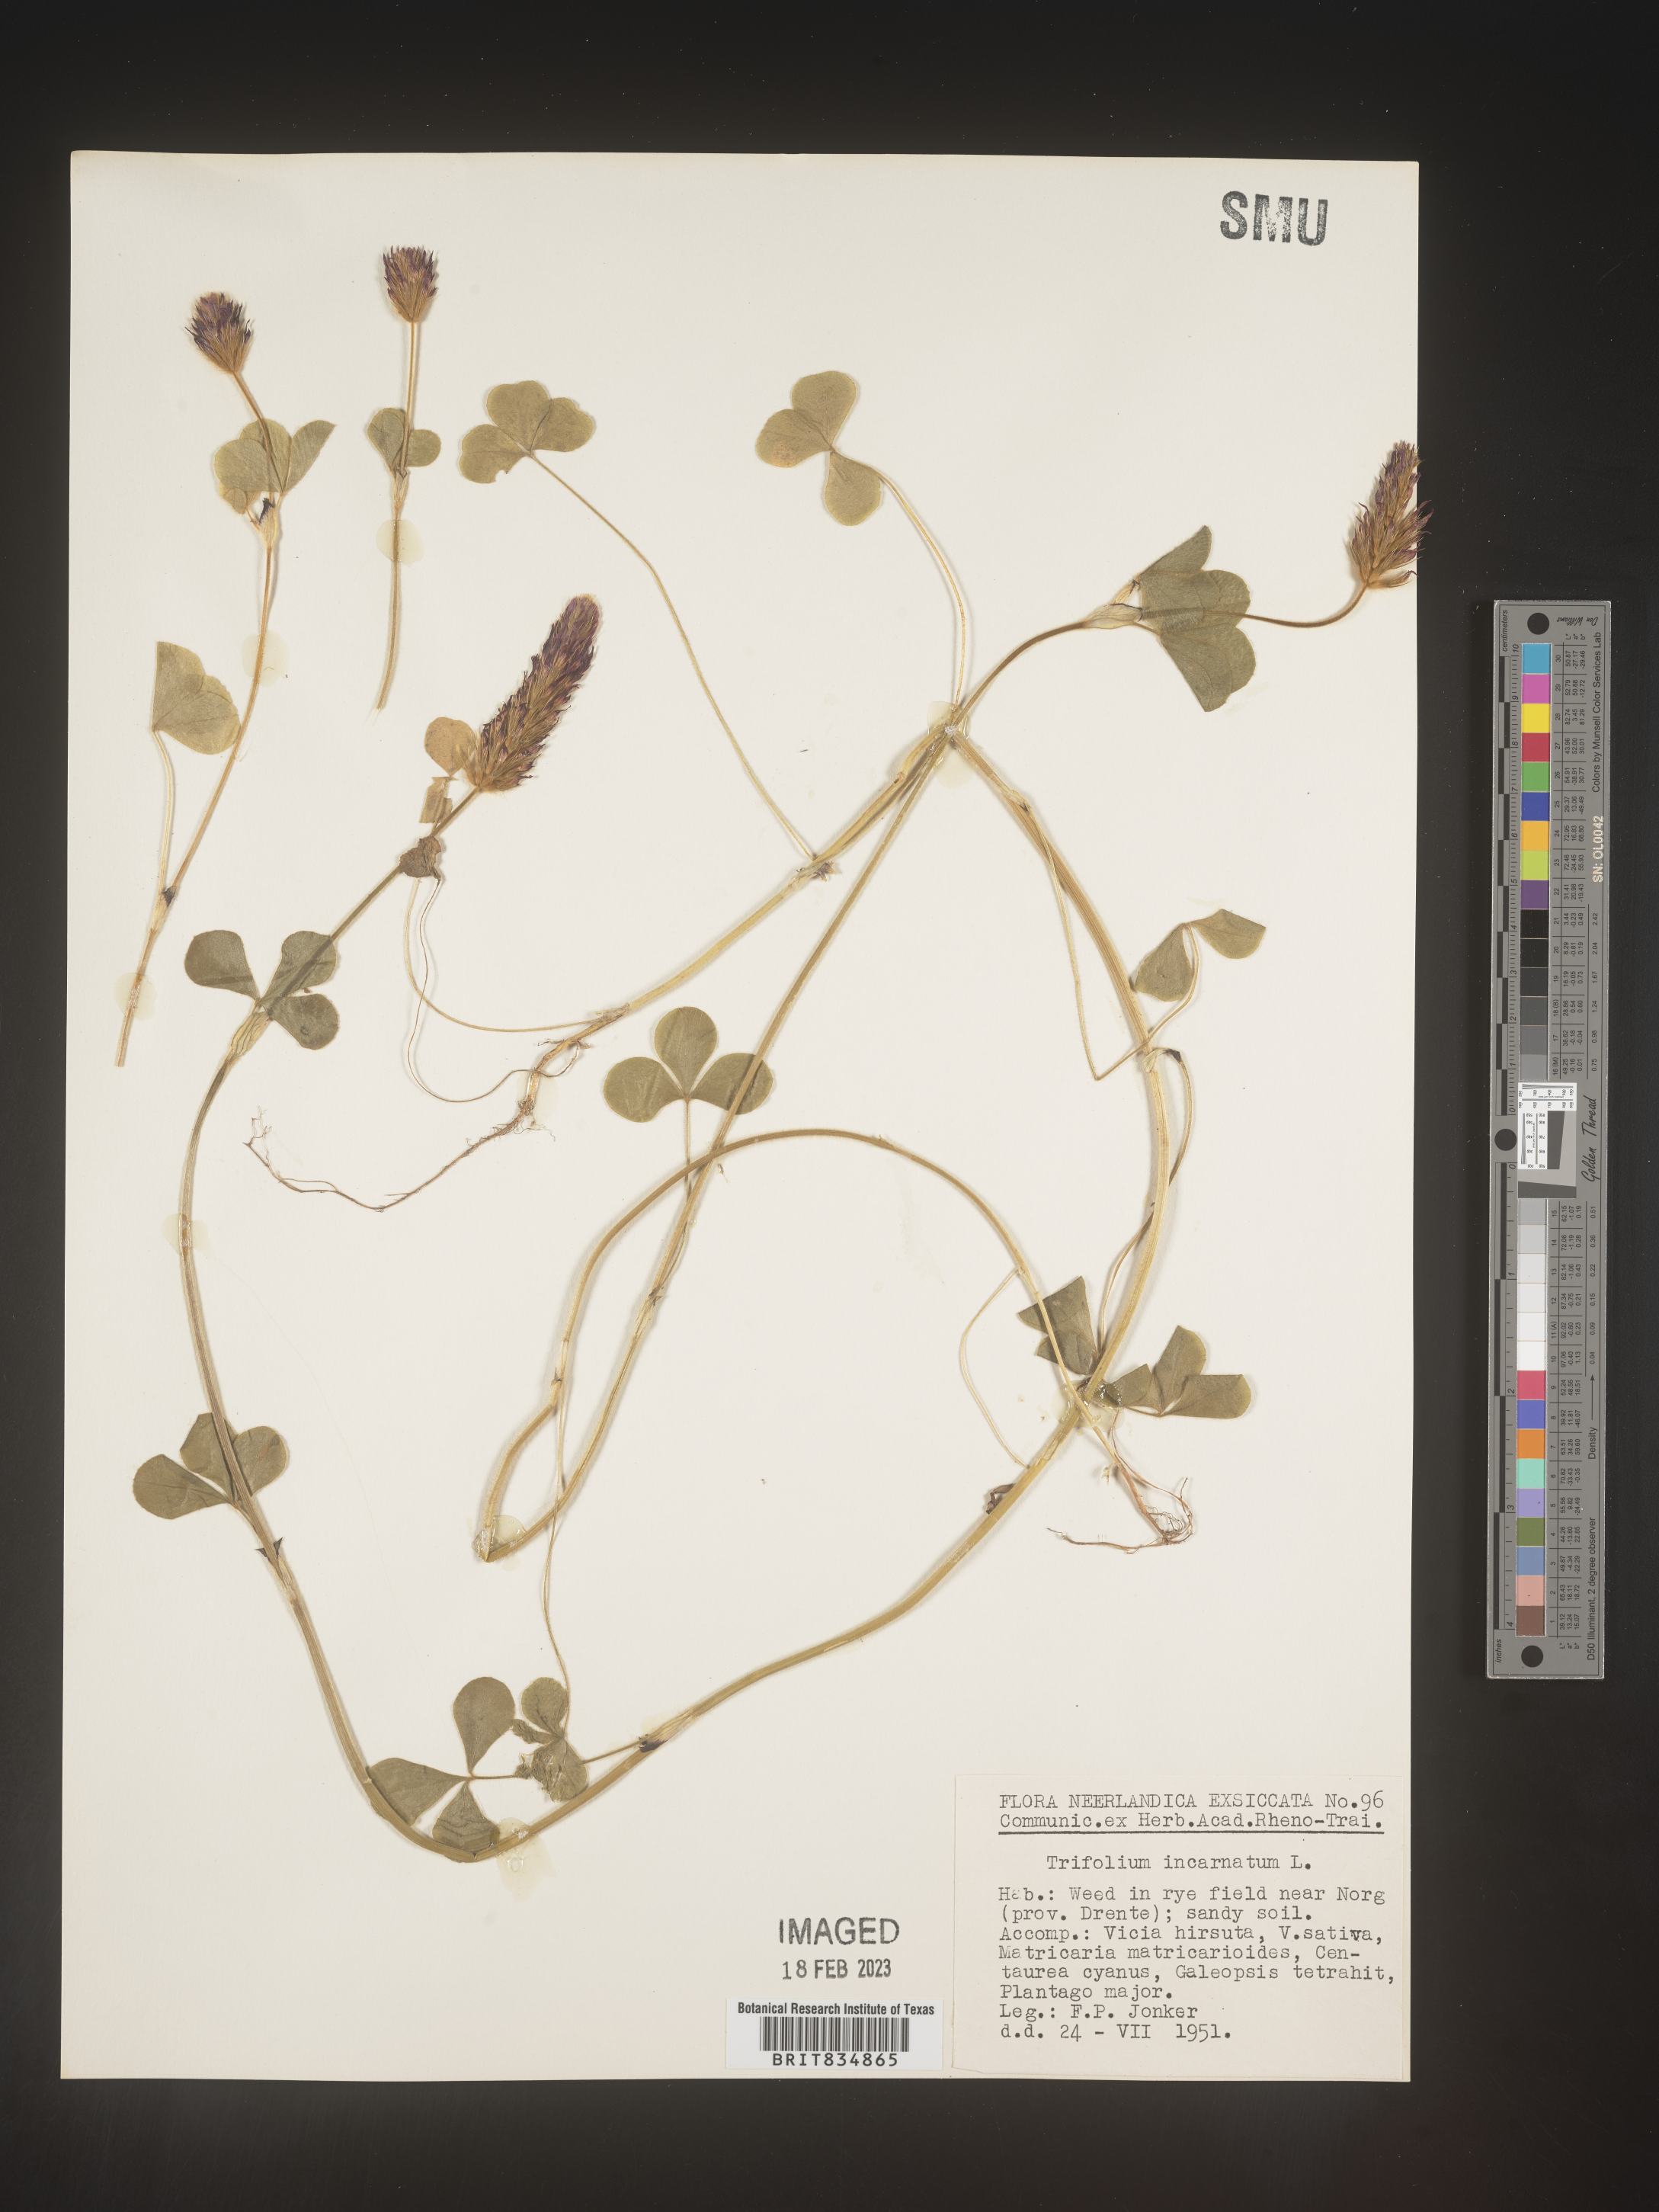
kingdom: Plantae
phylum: Tracheophyta
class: Magnoliopsida
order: Fabales
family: Fabaceae
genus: Trifolium
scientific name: Trifolium incarnatum
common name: Crimson clover
